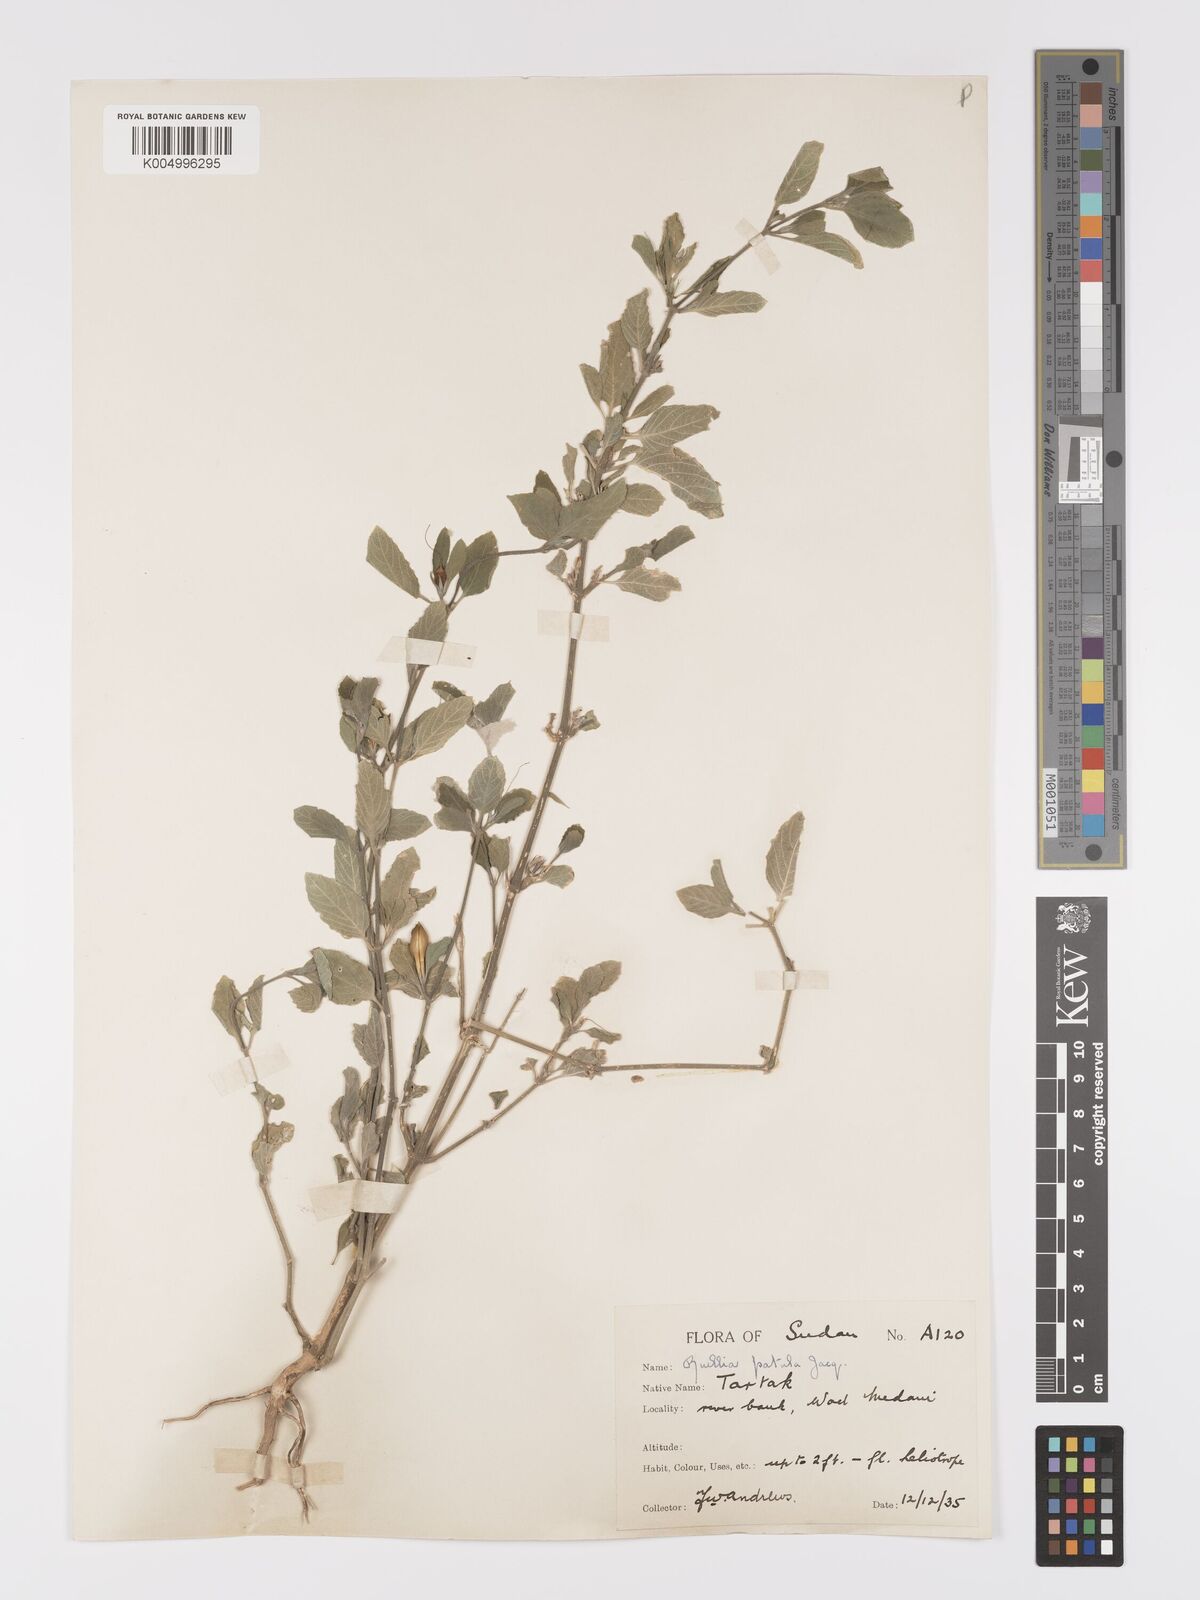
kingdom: Plantae
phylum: Tracheophyta
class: Magnoliopsida
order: Lamiales
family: Acanthaceae
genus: Ruellia
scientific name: Ruellia patula
